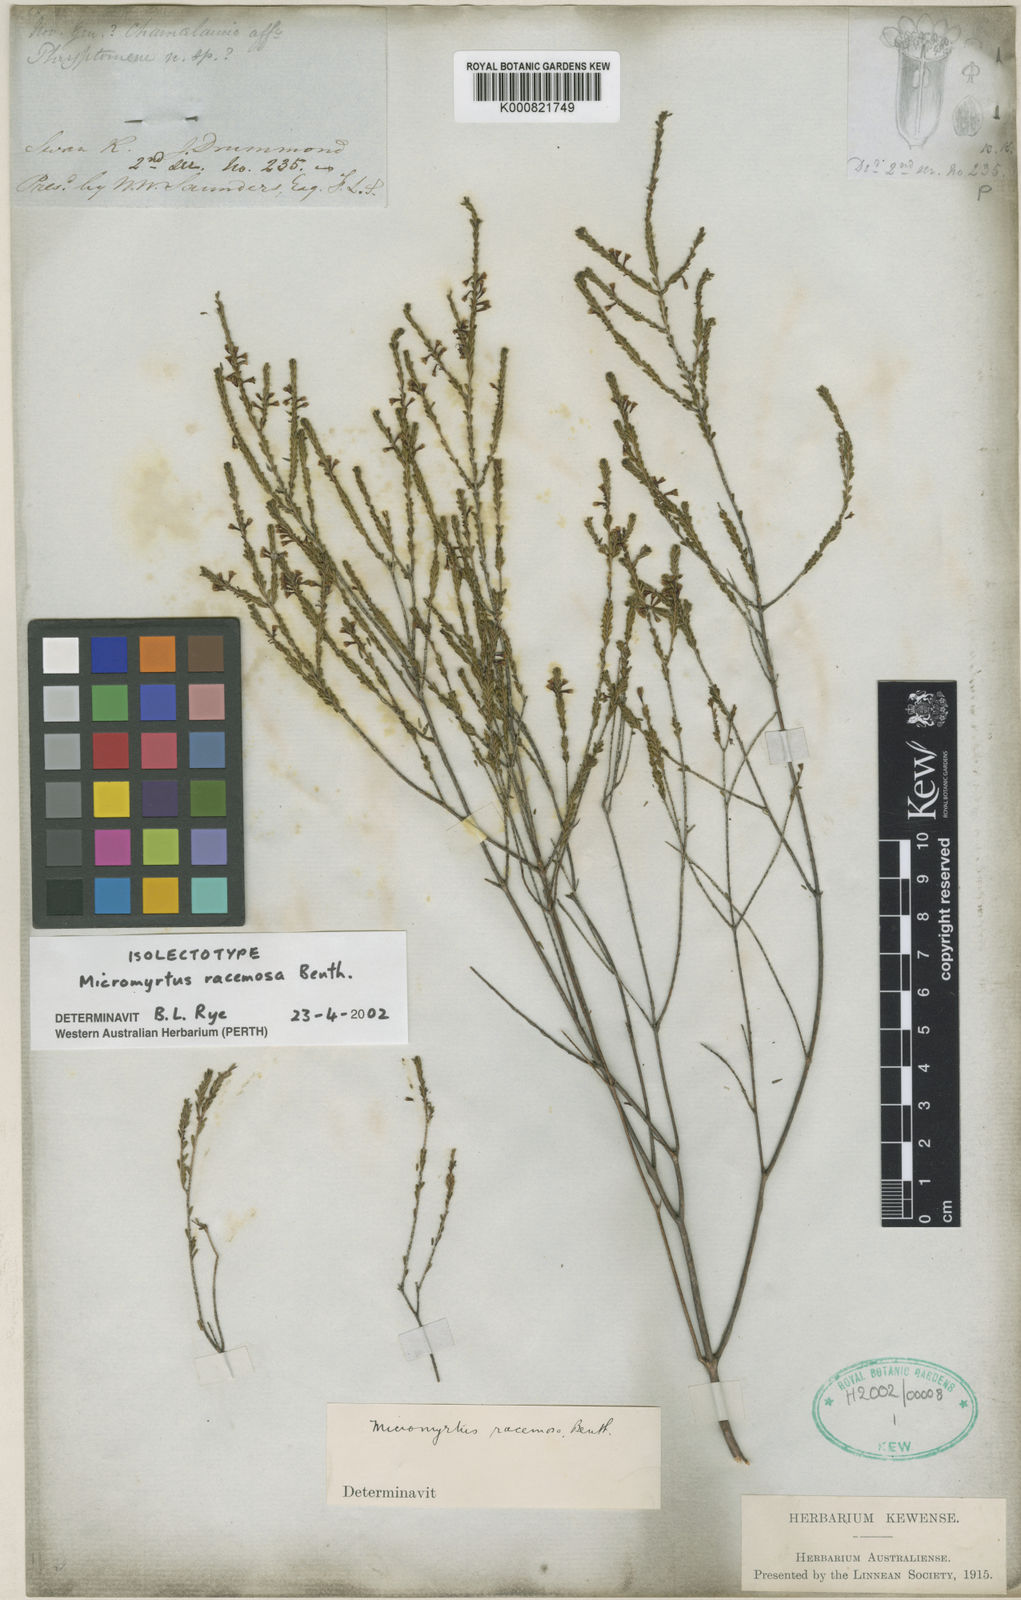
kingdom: Plantae
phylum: Tracheophyta
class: Magnoliopsida
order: Myrtales
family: Myrtaceae
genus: Micromyrtus
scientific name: Micromyrtus racemosa
